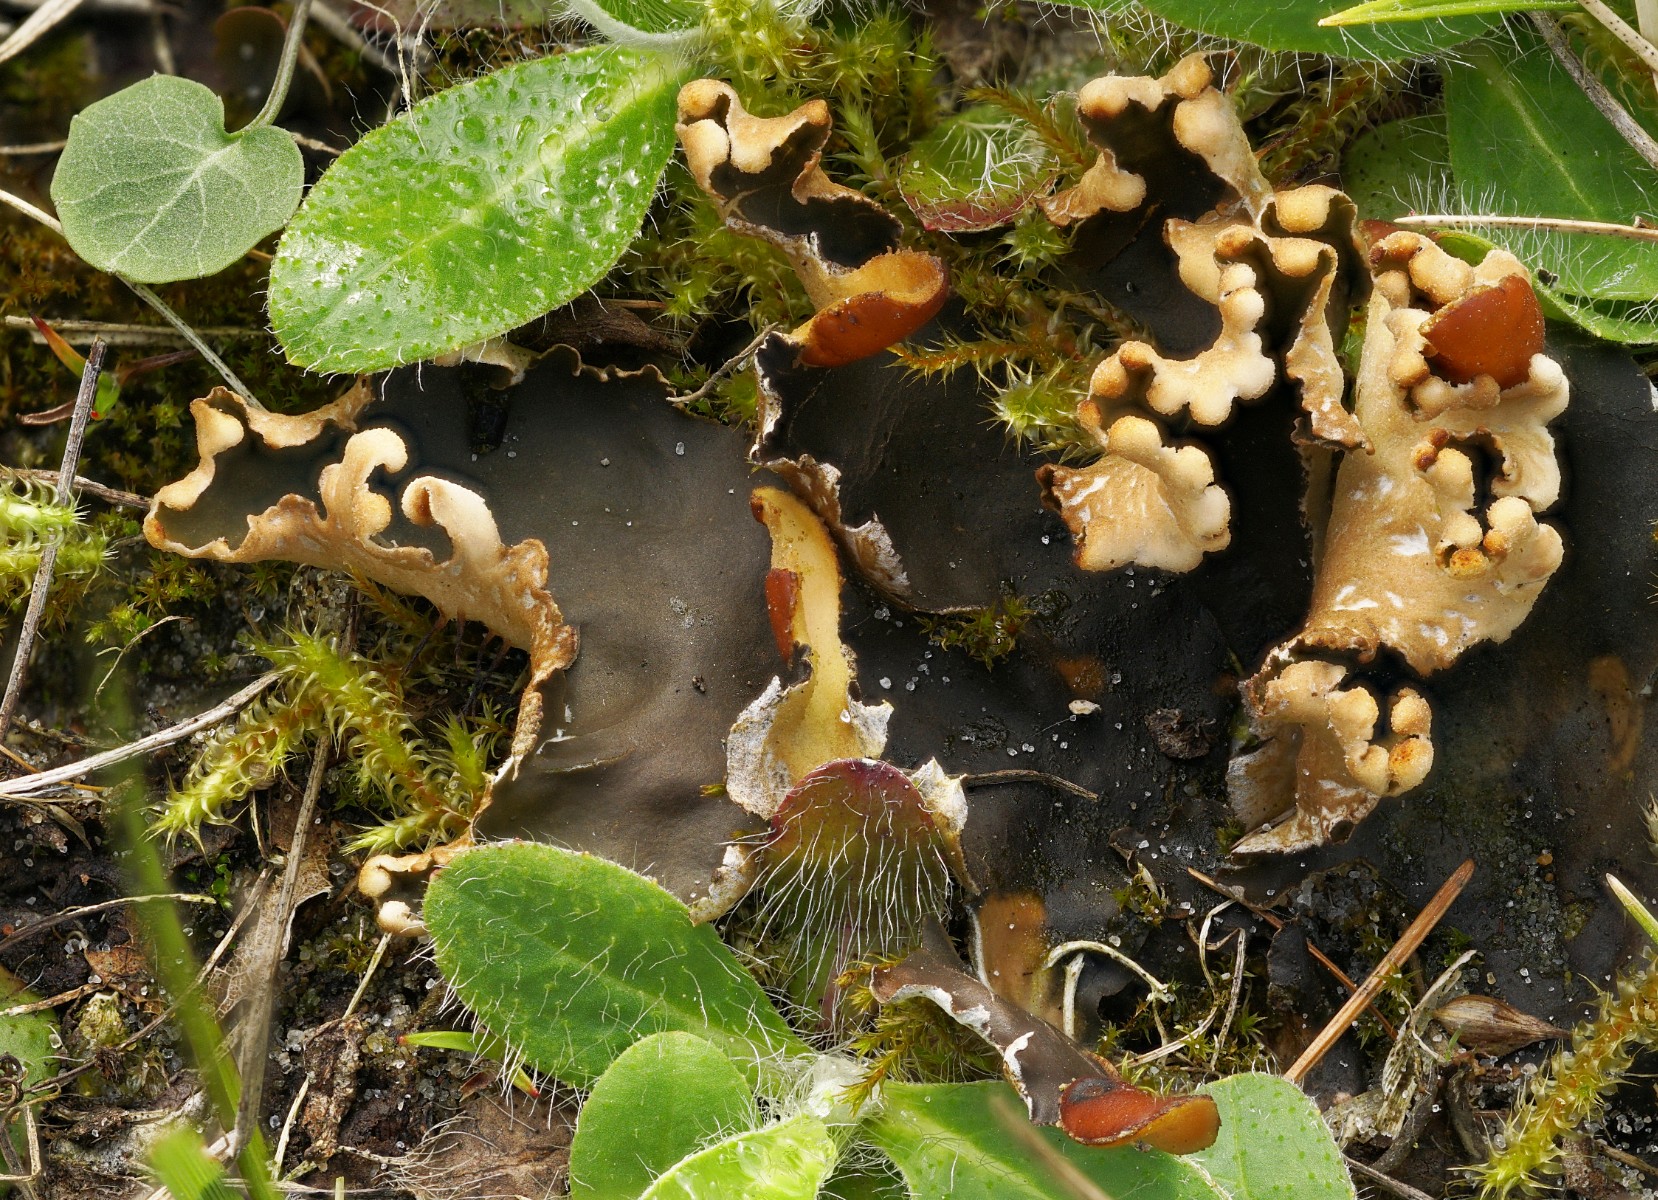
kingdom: Fungi
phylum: Ascomycota
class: Lecanoromycetes
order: Peltigerales
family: Peltigeraceae
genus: Peltigera
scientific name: Peltigera hymenina
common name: hinde-skjoldlav
